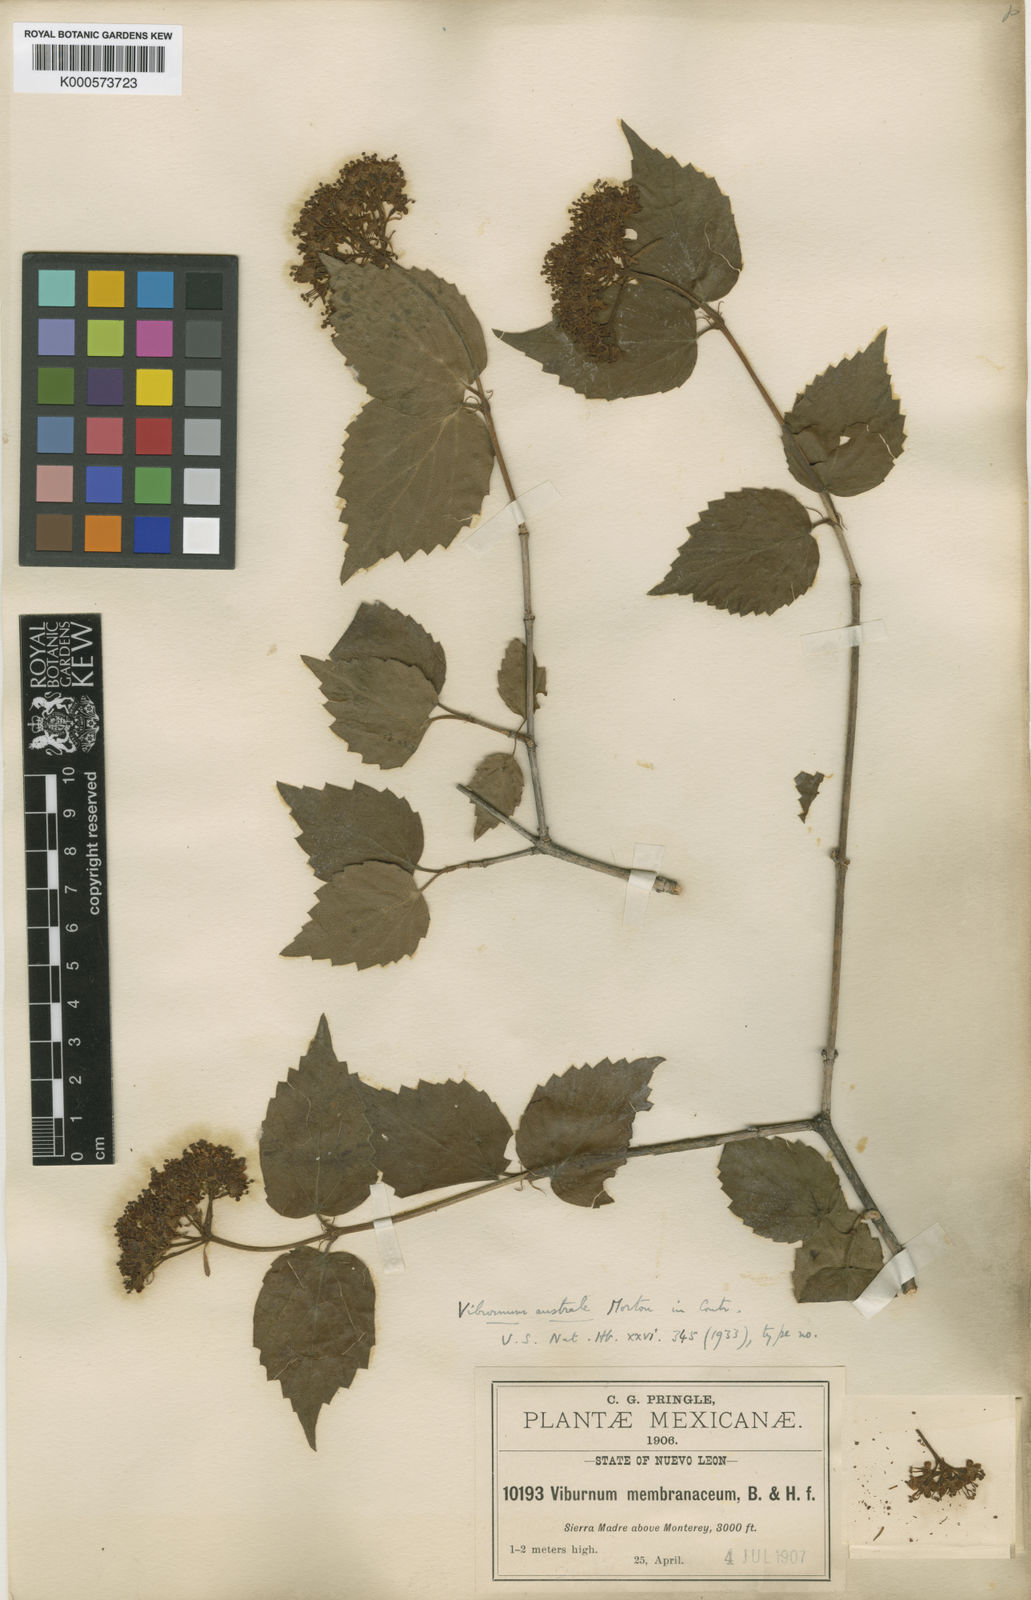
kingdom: Plantae
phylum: Tracheophyta
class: Magnoliopsida
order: Dipsacales
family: Viburnaceae
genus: Viburnum
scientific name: Viburnum australe
